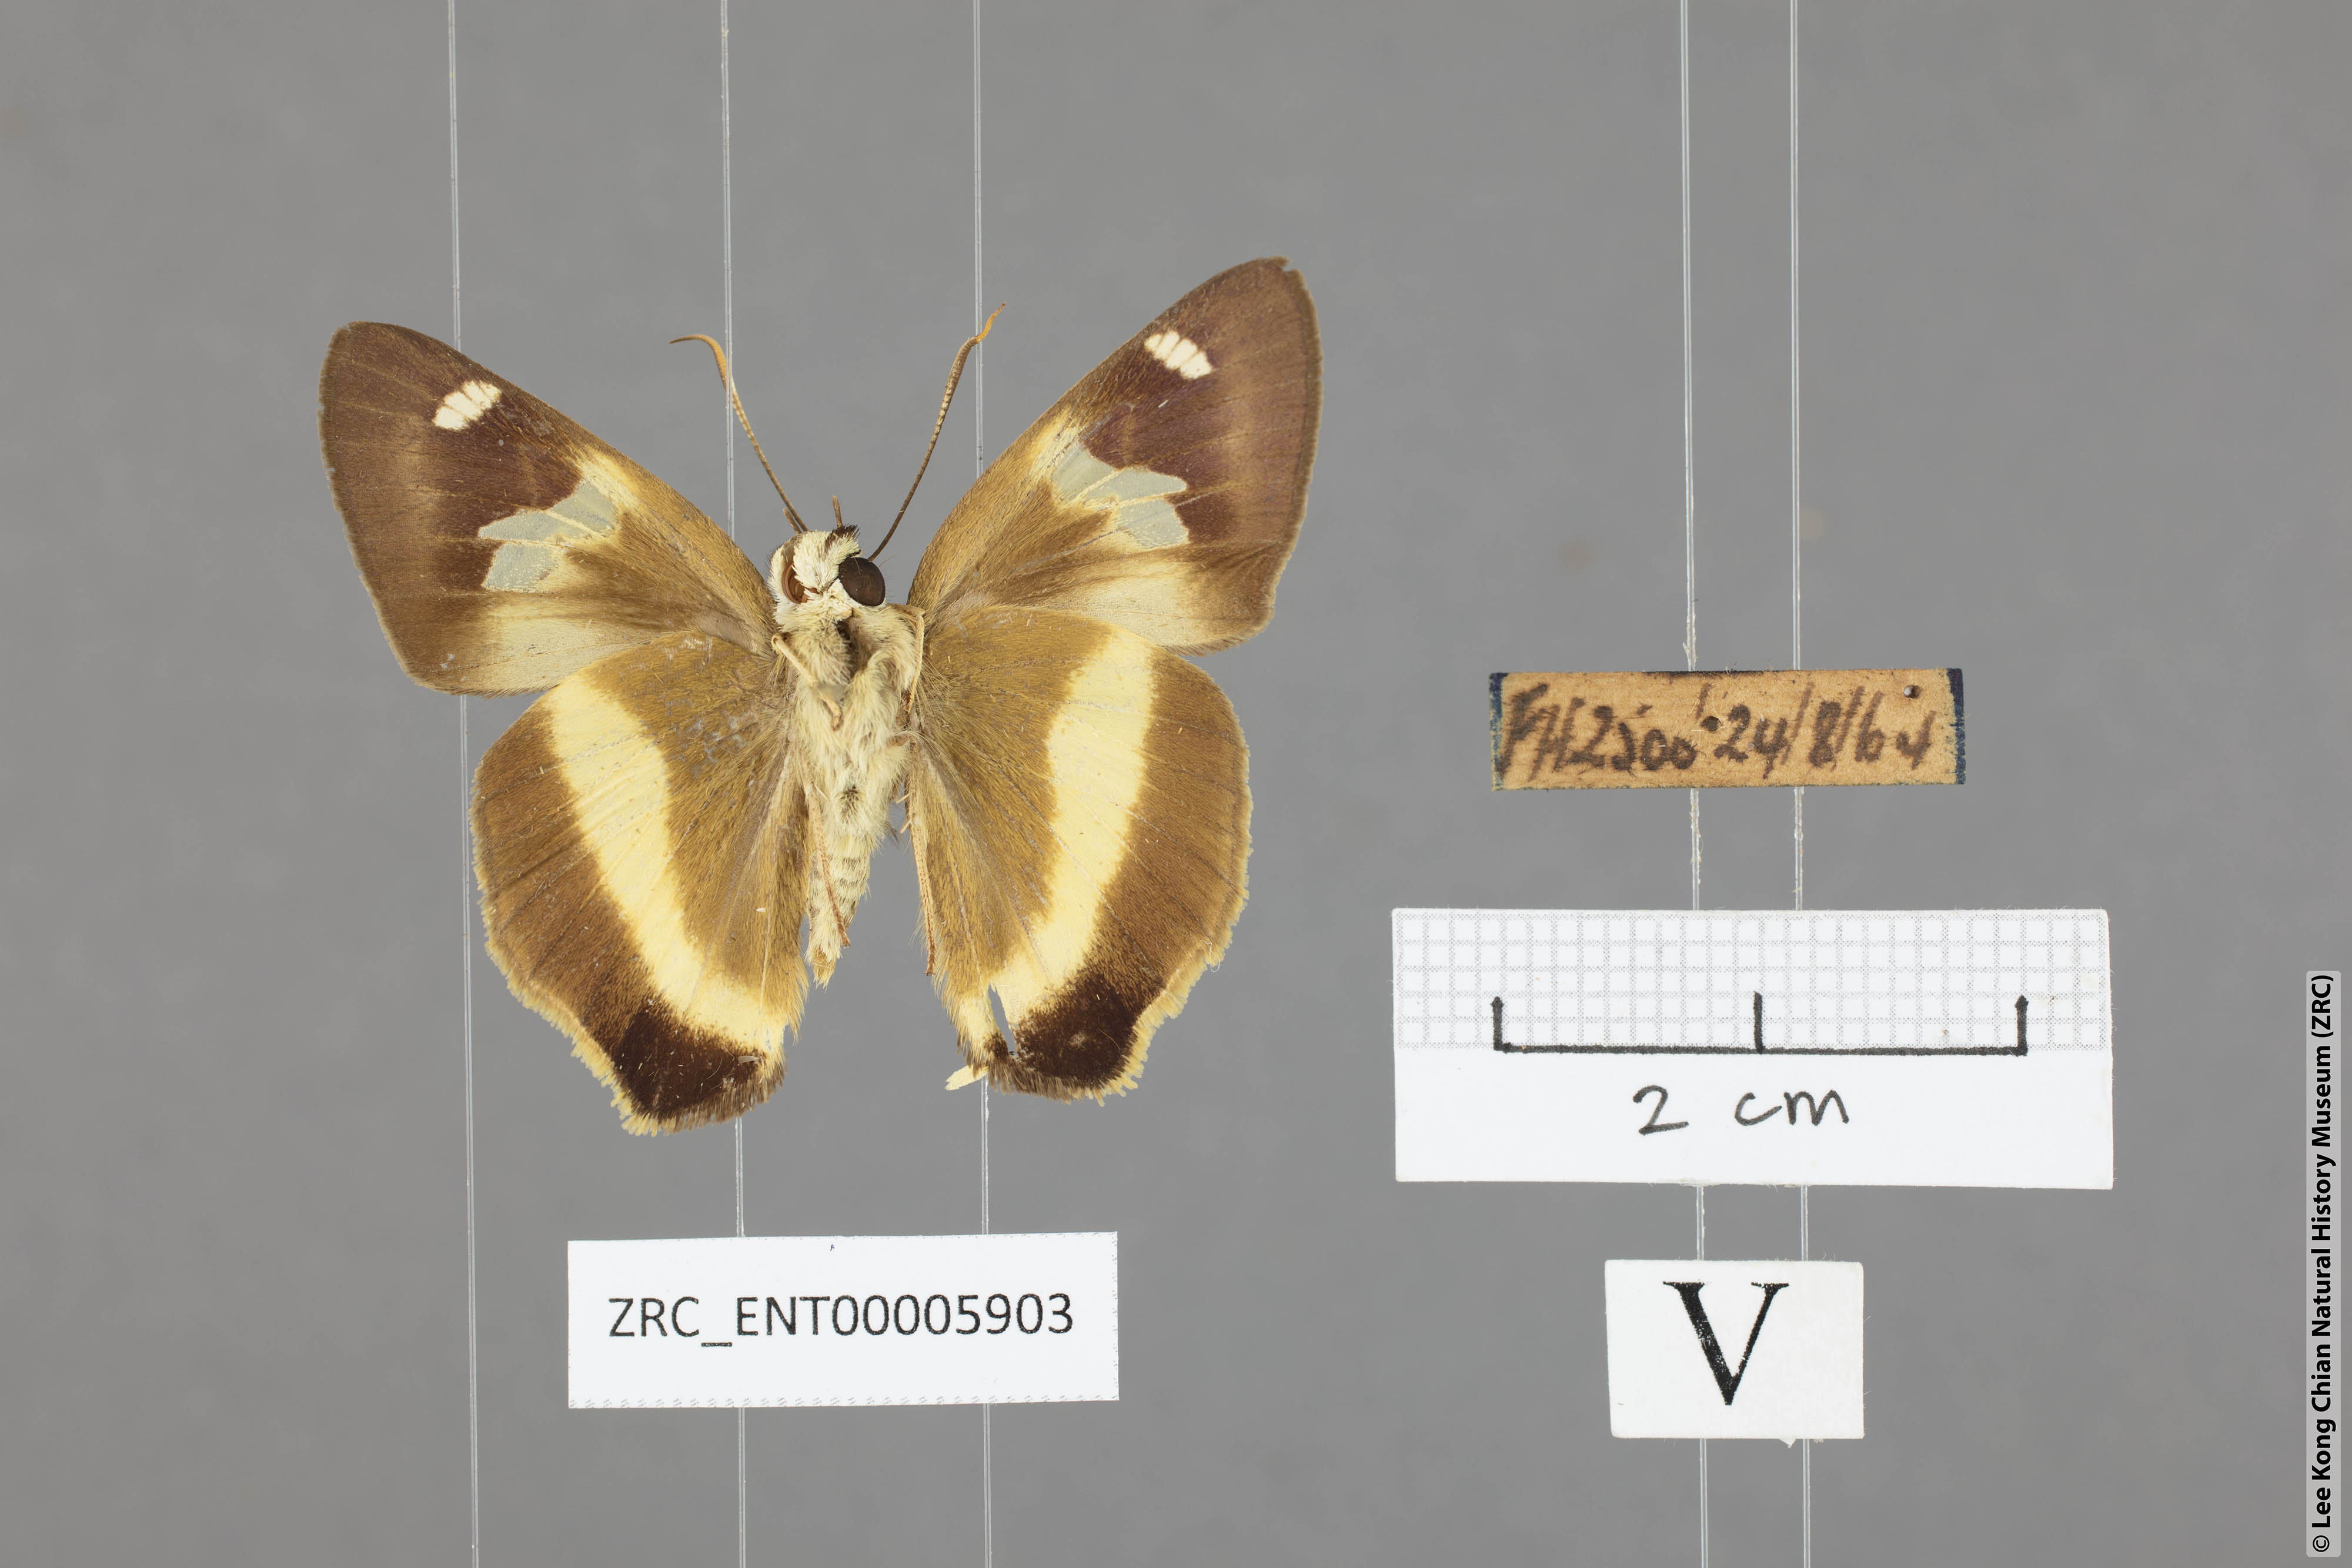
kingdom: Animalia
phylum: Arthropoda
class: Insecta
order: Lepidoptera
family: Hesperiidae
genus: Hasora
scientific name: Hasora schoenherr
